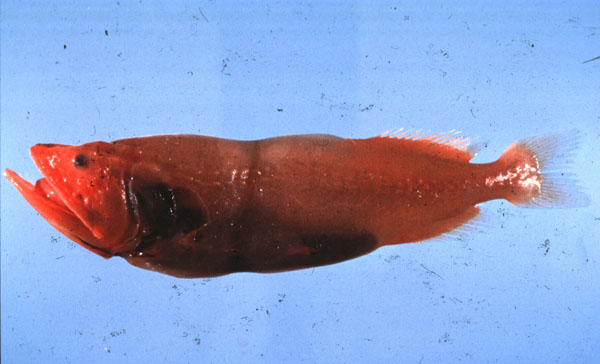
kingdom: Animalia
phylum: Chordata
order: Cetomimiformes
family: Barbourisiidae
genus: Barbourisia
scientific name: Barbourisia rufa
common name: Red whalefish
